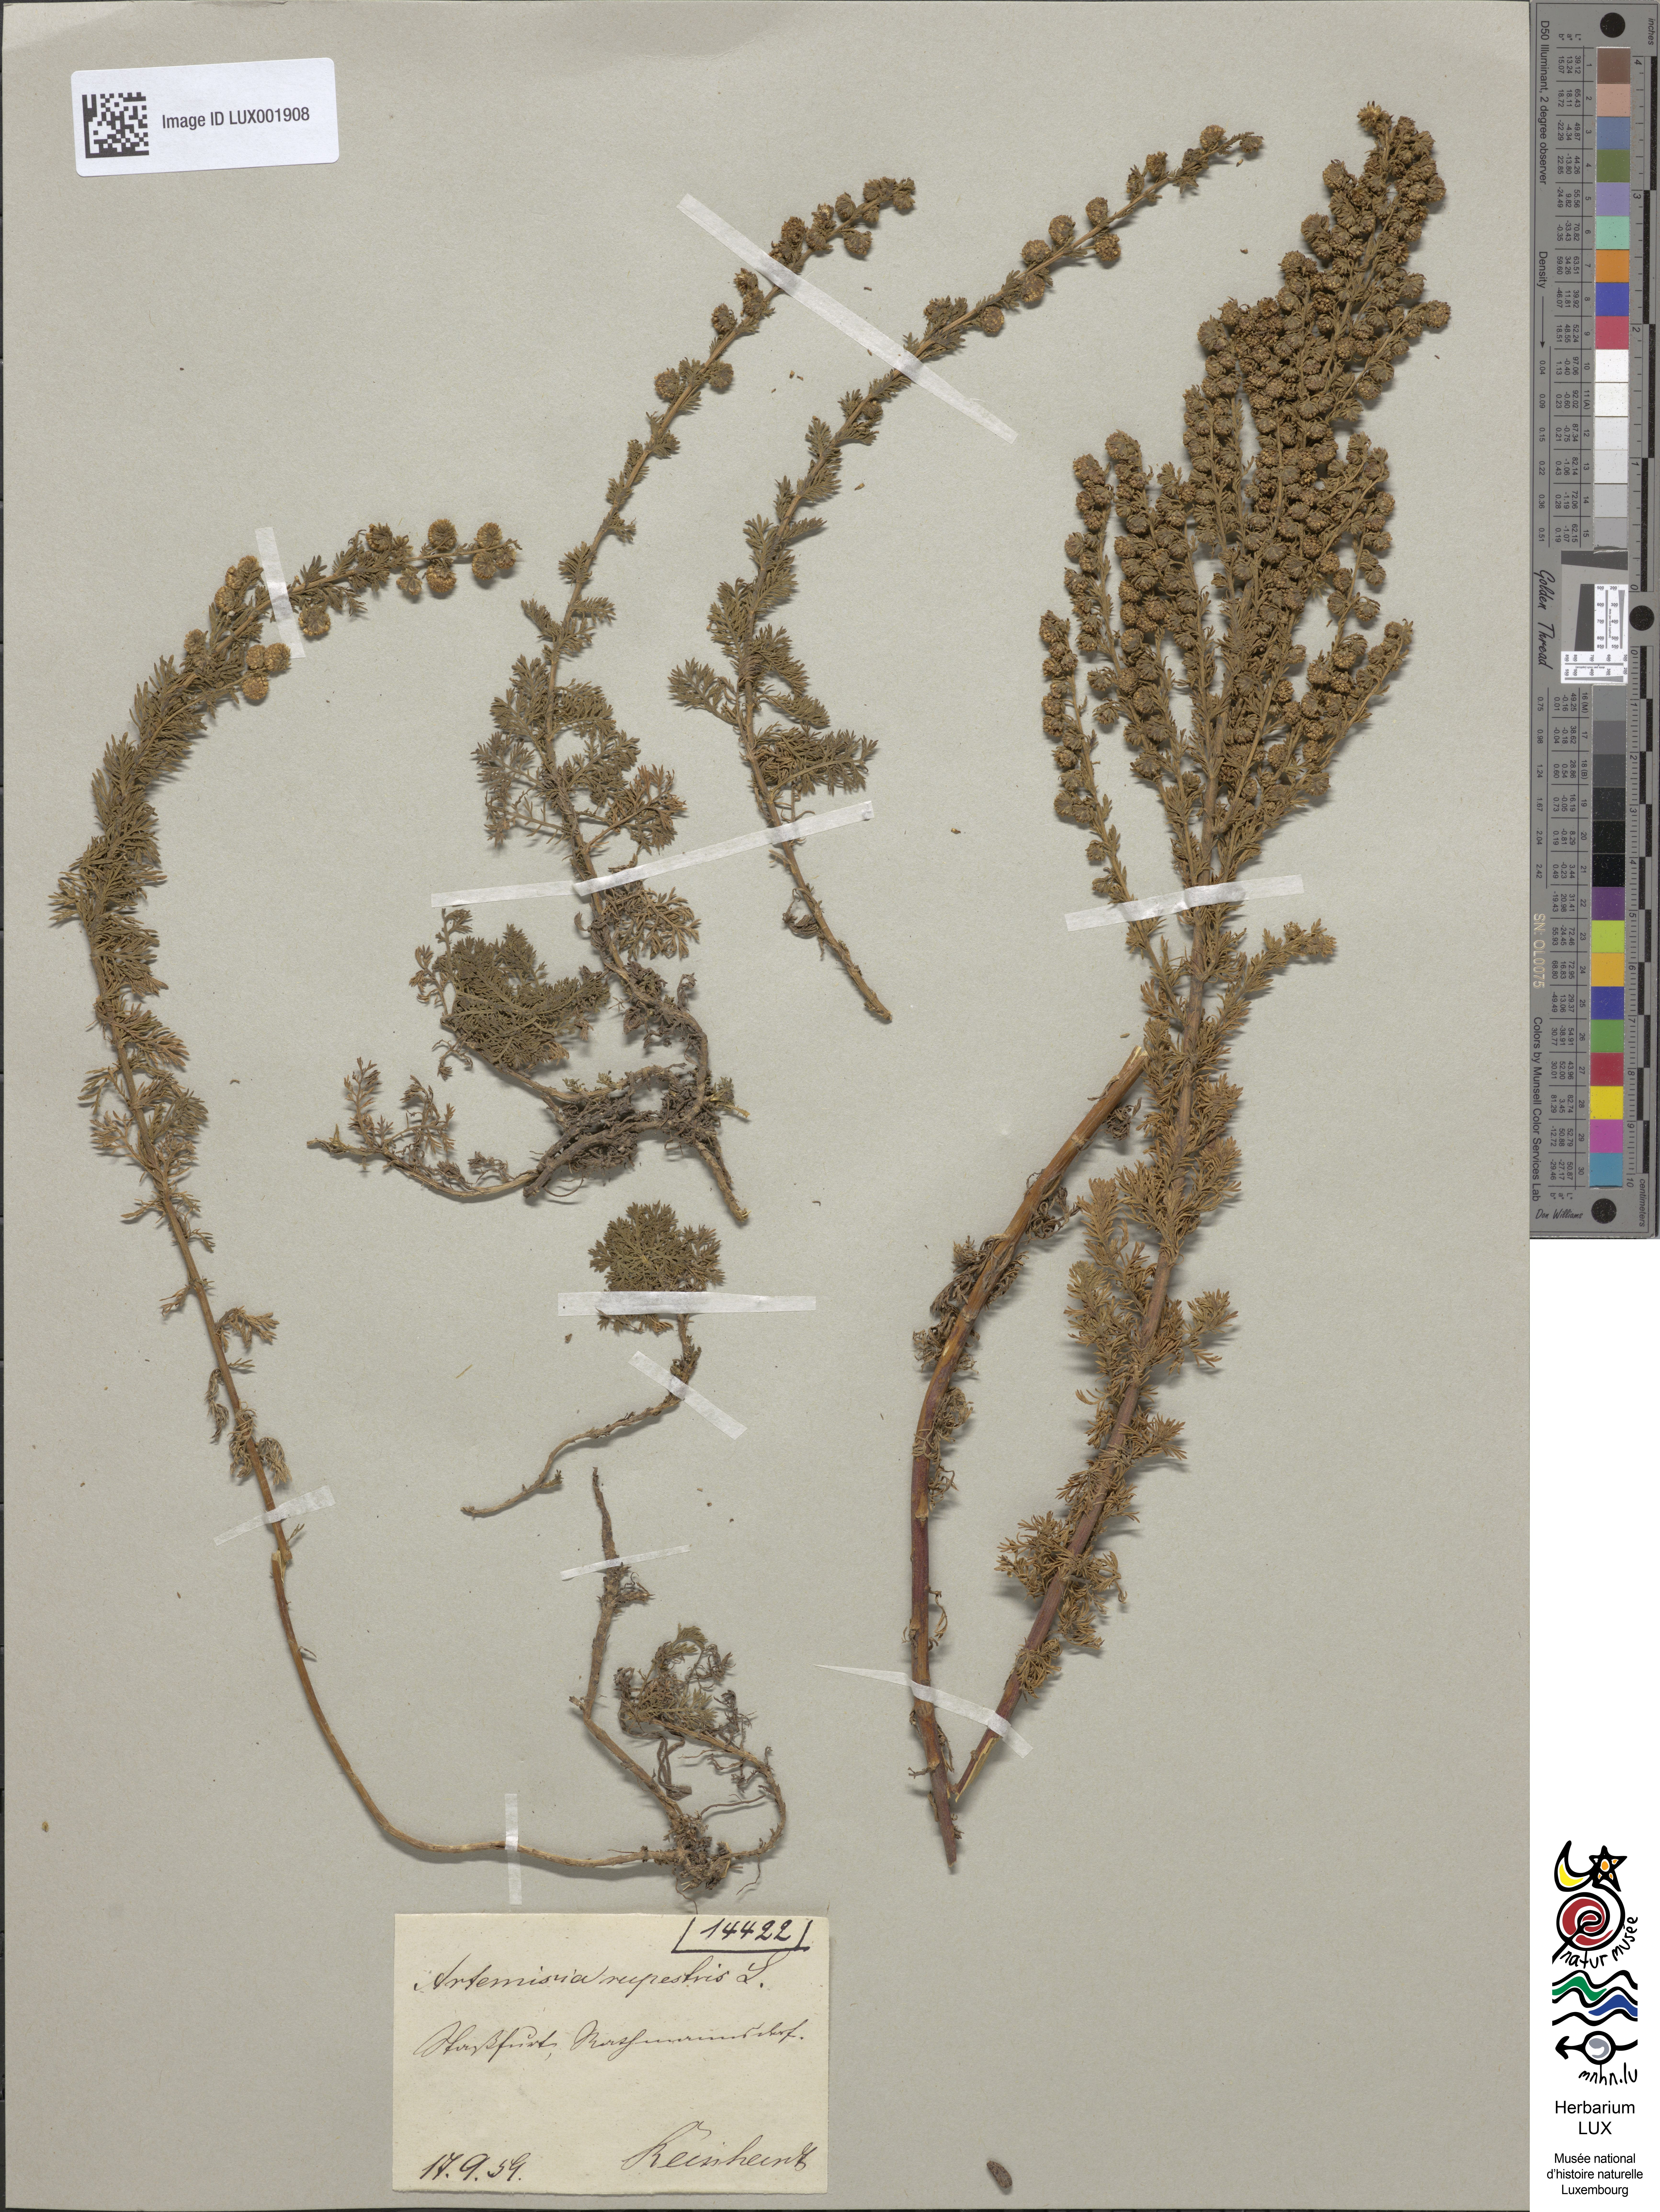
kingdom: Plantae
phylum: Tracheophyta
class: Magnoliopsida
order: Asterales
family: Asteraceae
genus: Artemisia
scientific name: Artemisia rupestris
